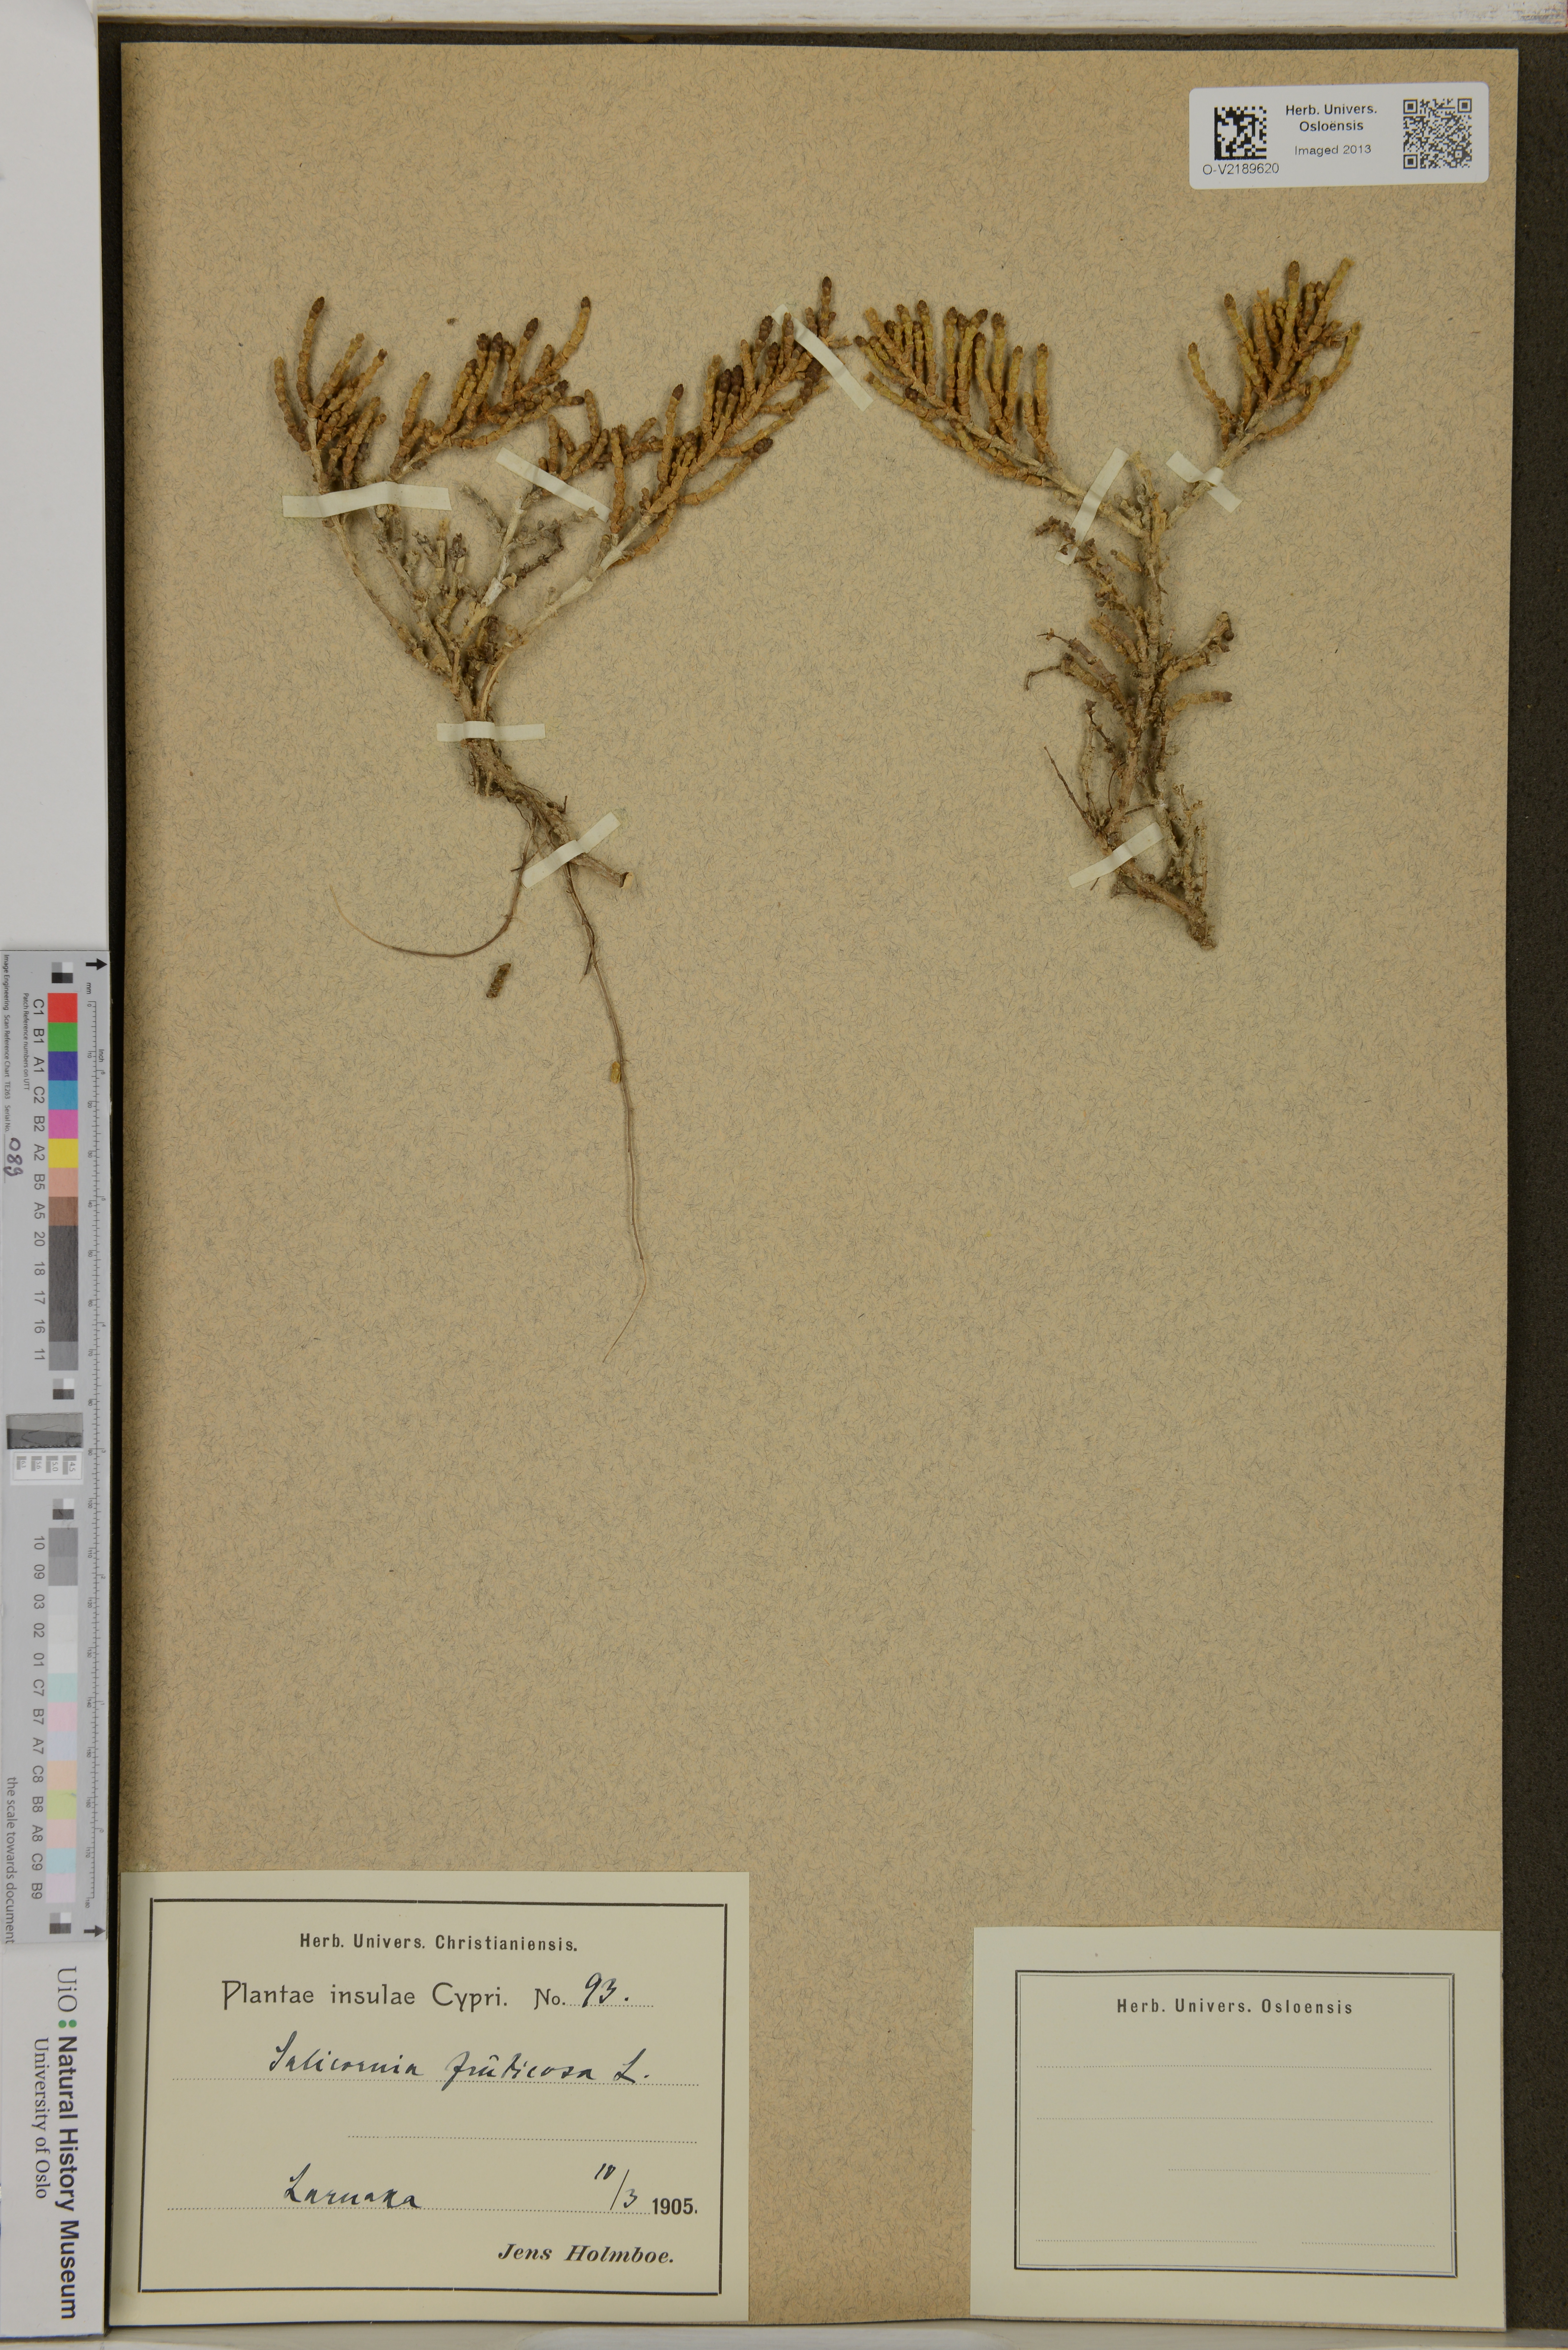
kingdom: Plantae
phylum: Tracheophyta
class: Magnoliopsida
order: Caryophyllales
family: Amaranthaceae
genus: Salicornia
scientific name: Salicornia fruticosa
